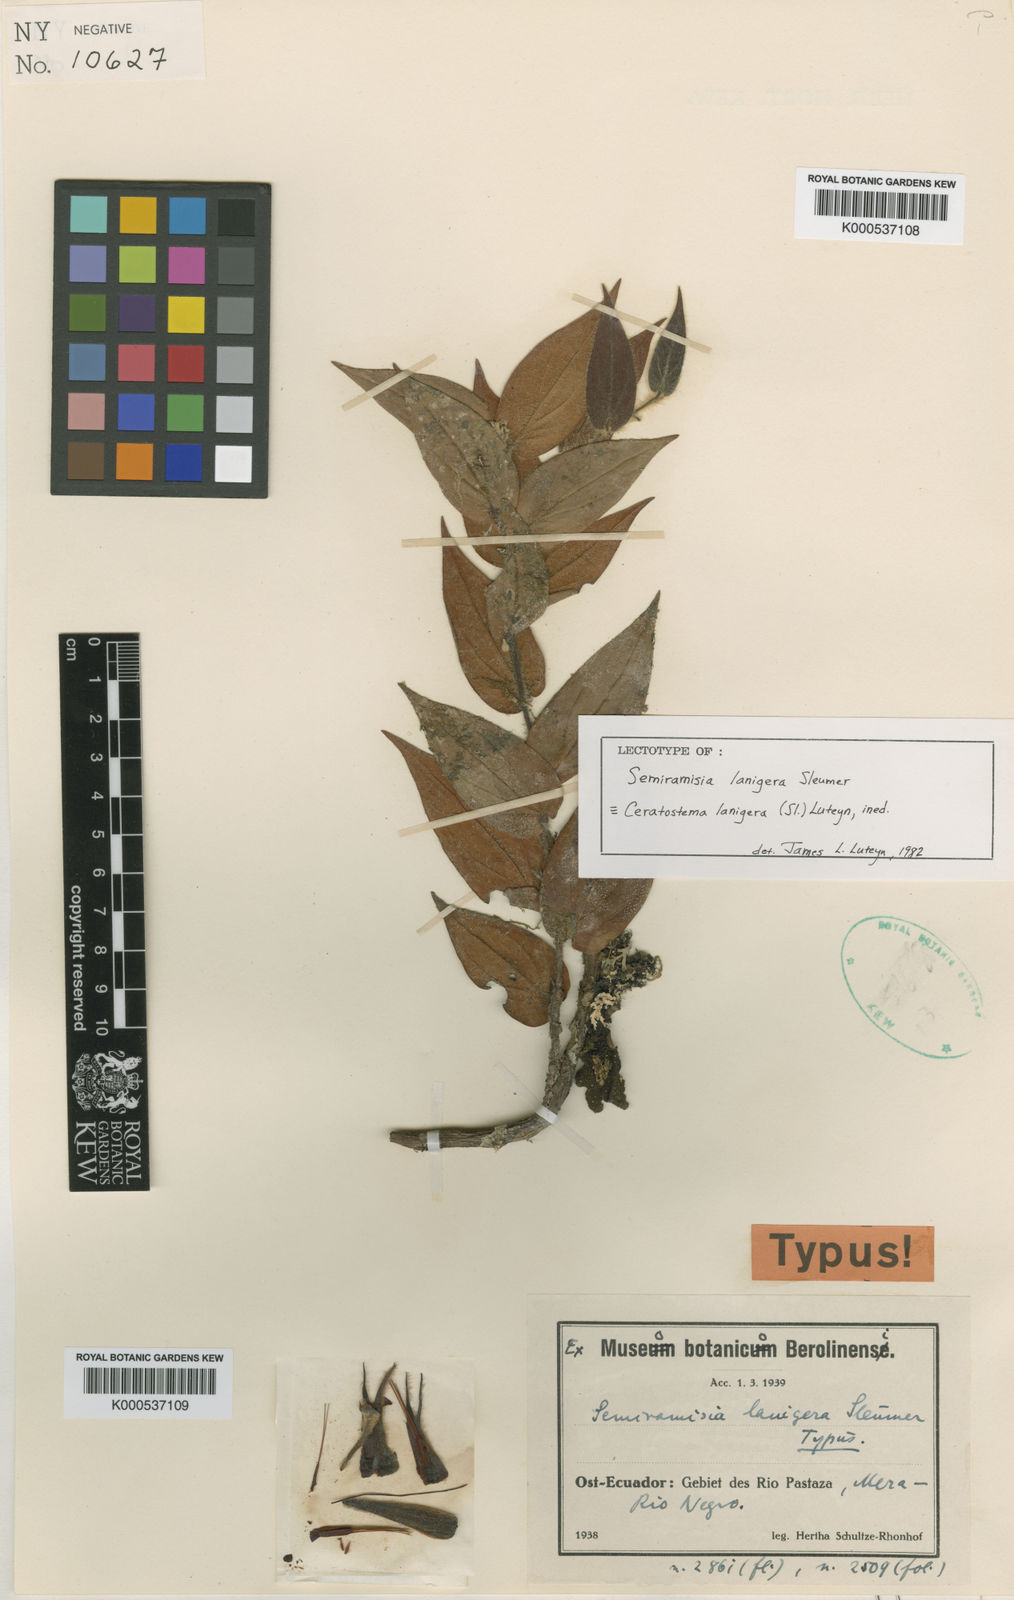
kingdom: Plantae
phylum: Tracheophyta
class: Magnoliopsida
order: Ericales
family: Ericaceae
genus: Ceratostema
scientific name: Ceratostema lanigerum
